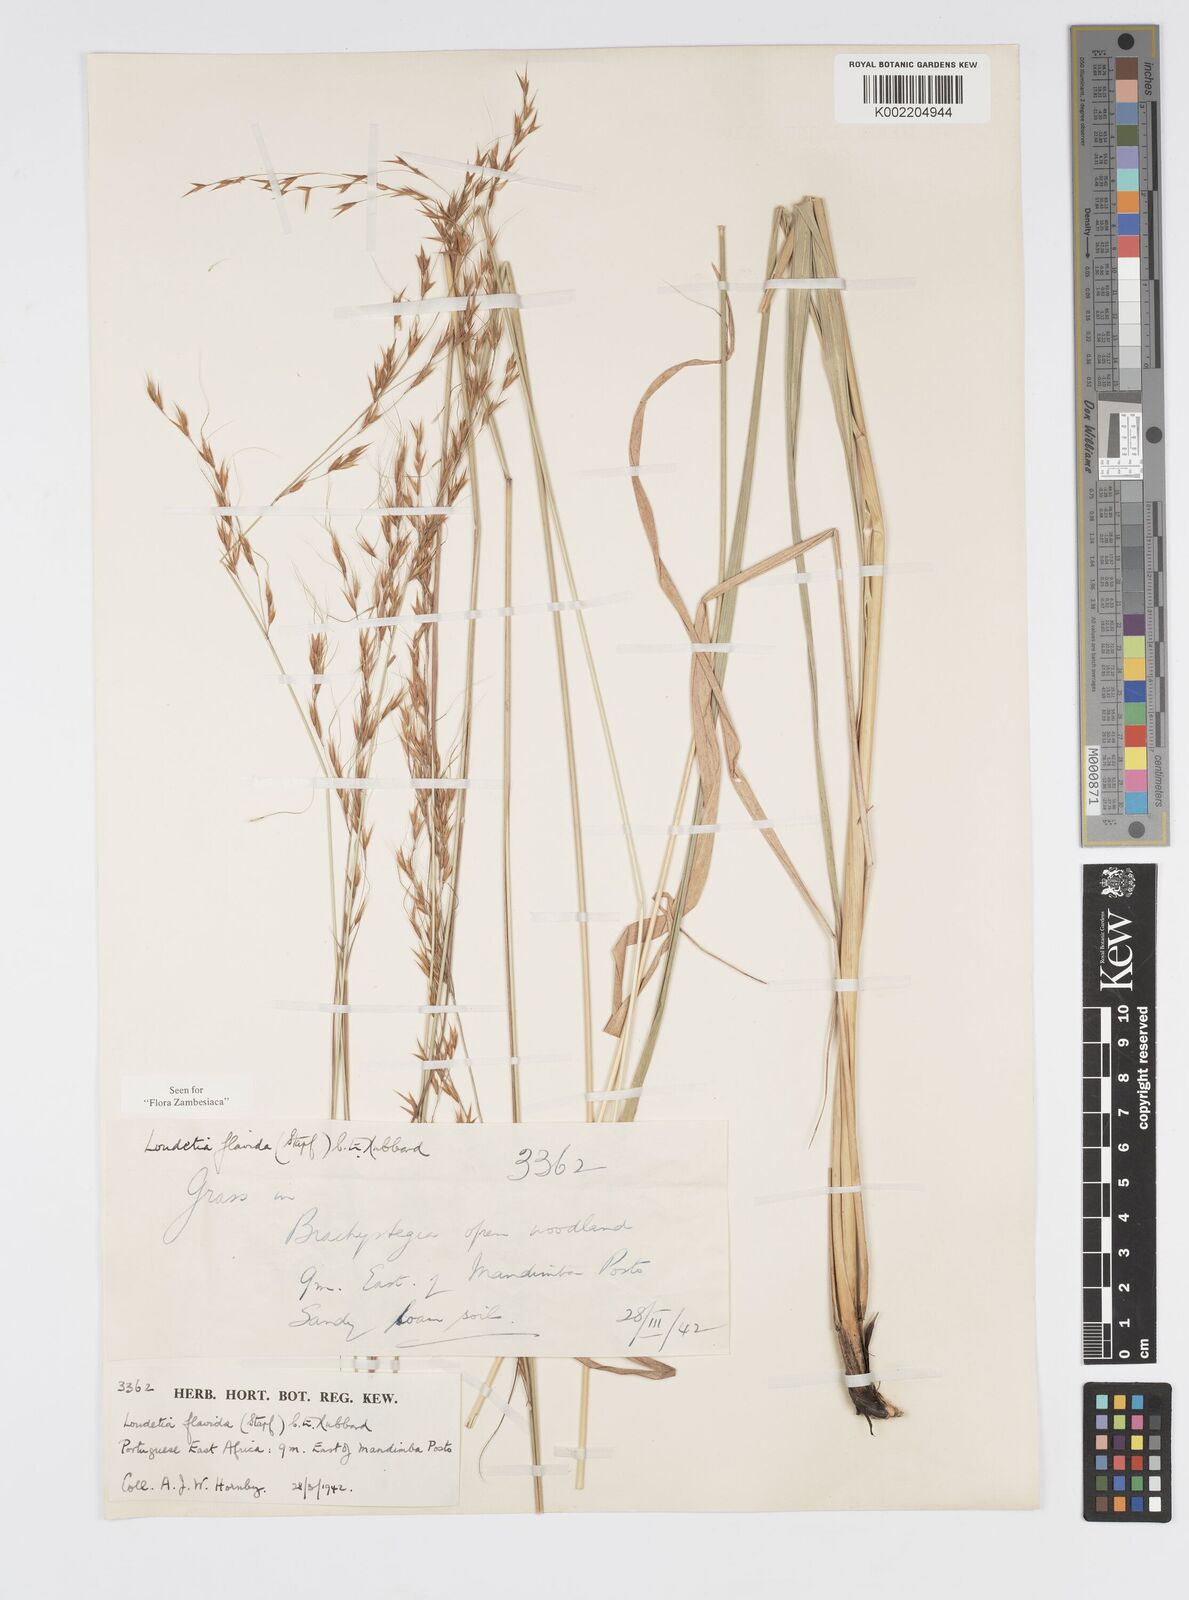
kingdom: Plantae
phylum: Tracheophyta
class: Liliopsida
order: Poales
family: Poaceae
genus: Loudetia
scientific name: Loudetia flavida
